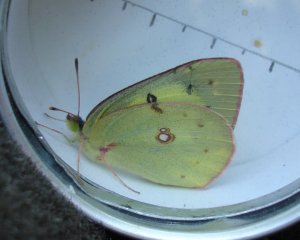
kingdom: Animalia
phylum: Arthropoda
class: Insecta
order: Lepidoptera
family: Pieridae
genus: Colias
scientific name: Colias philodice
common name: Clouded Sulphur
